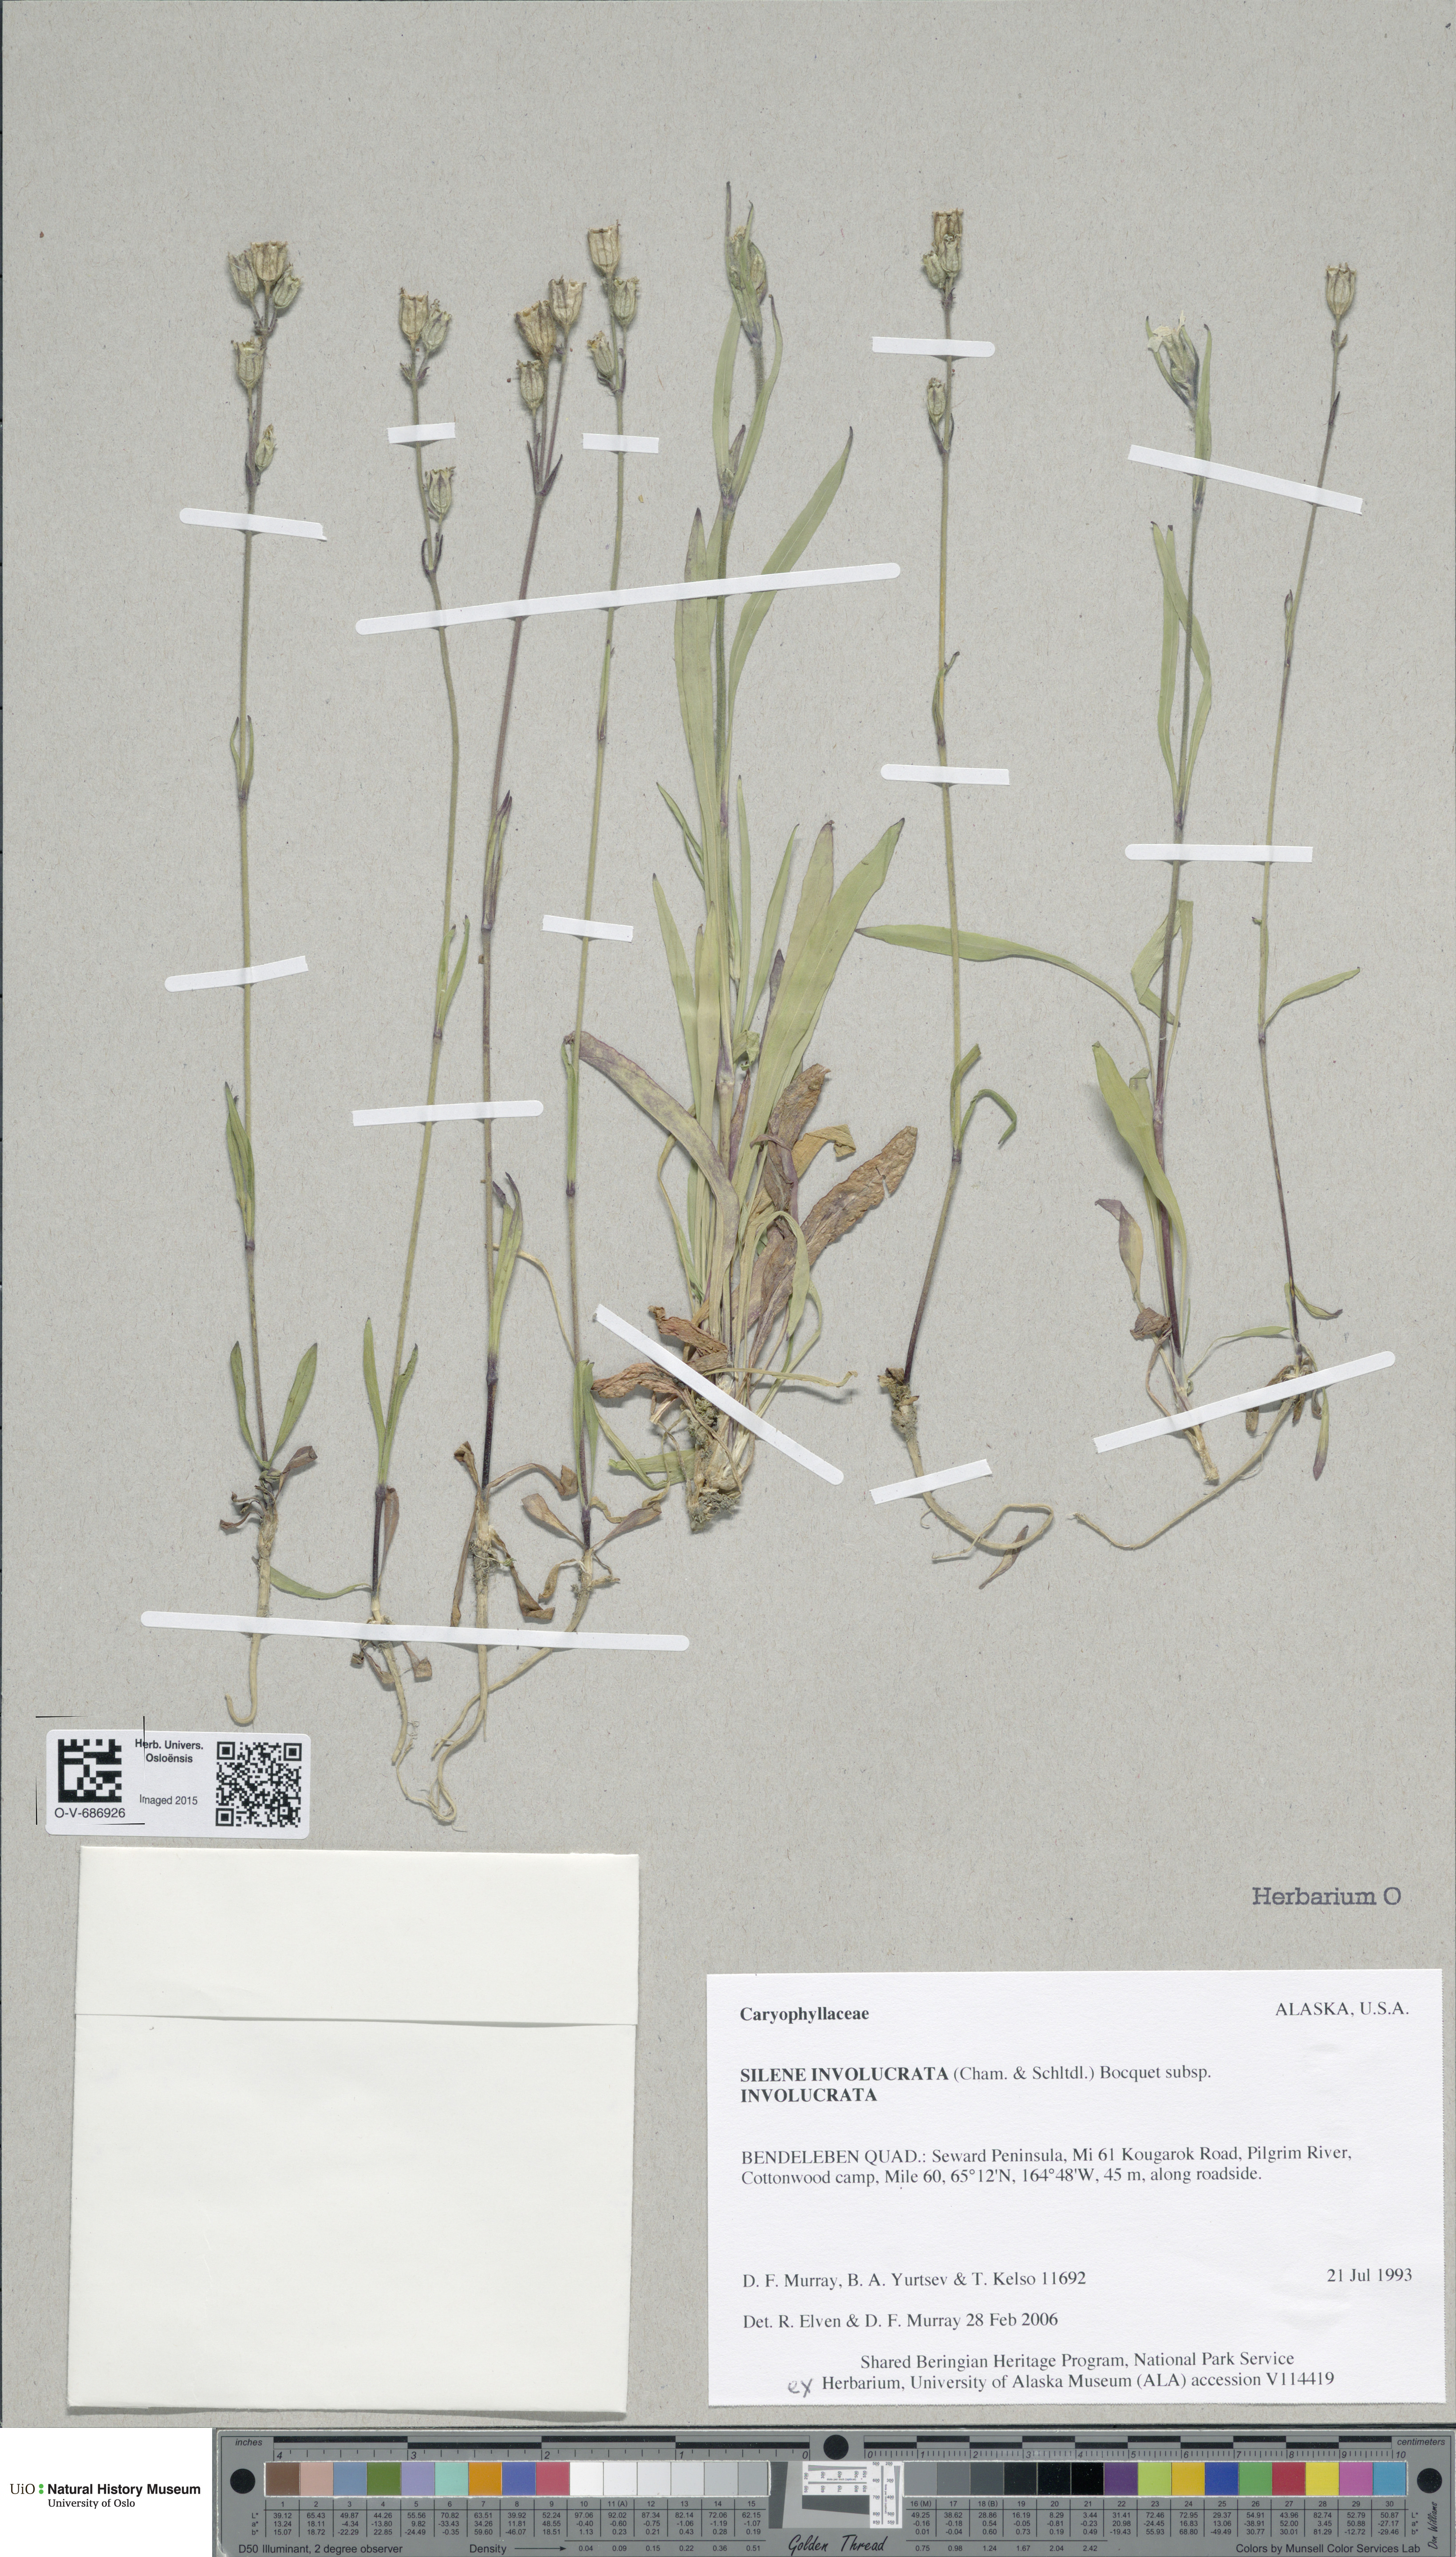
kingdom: Plantae
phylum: Tracheophyta
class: Magnoliopsida
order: Caryophyllales
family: Caryophyllaceae
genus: Silene
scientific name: Silene involucrata
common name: Greater arctic campion
